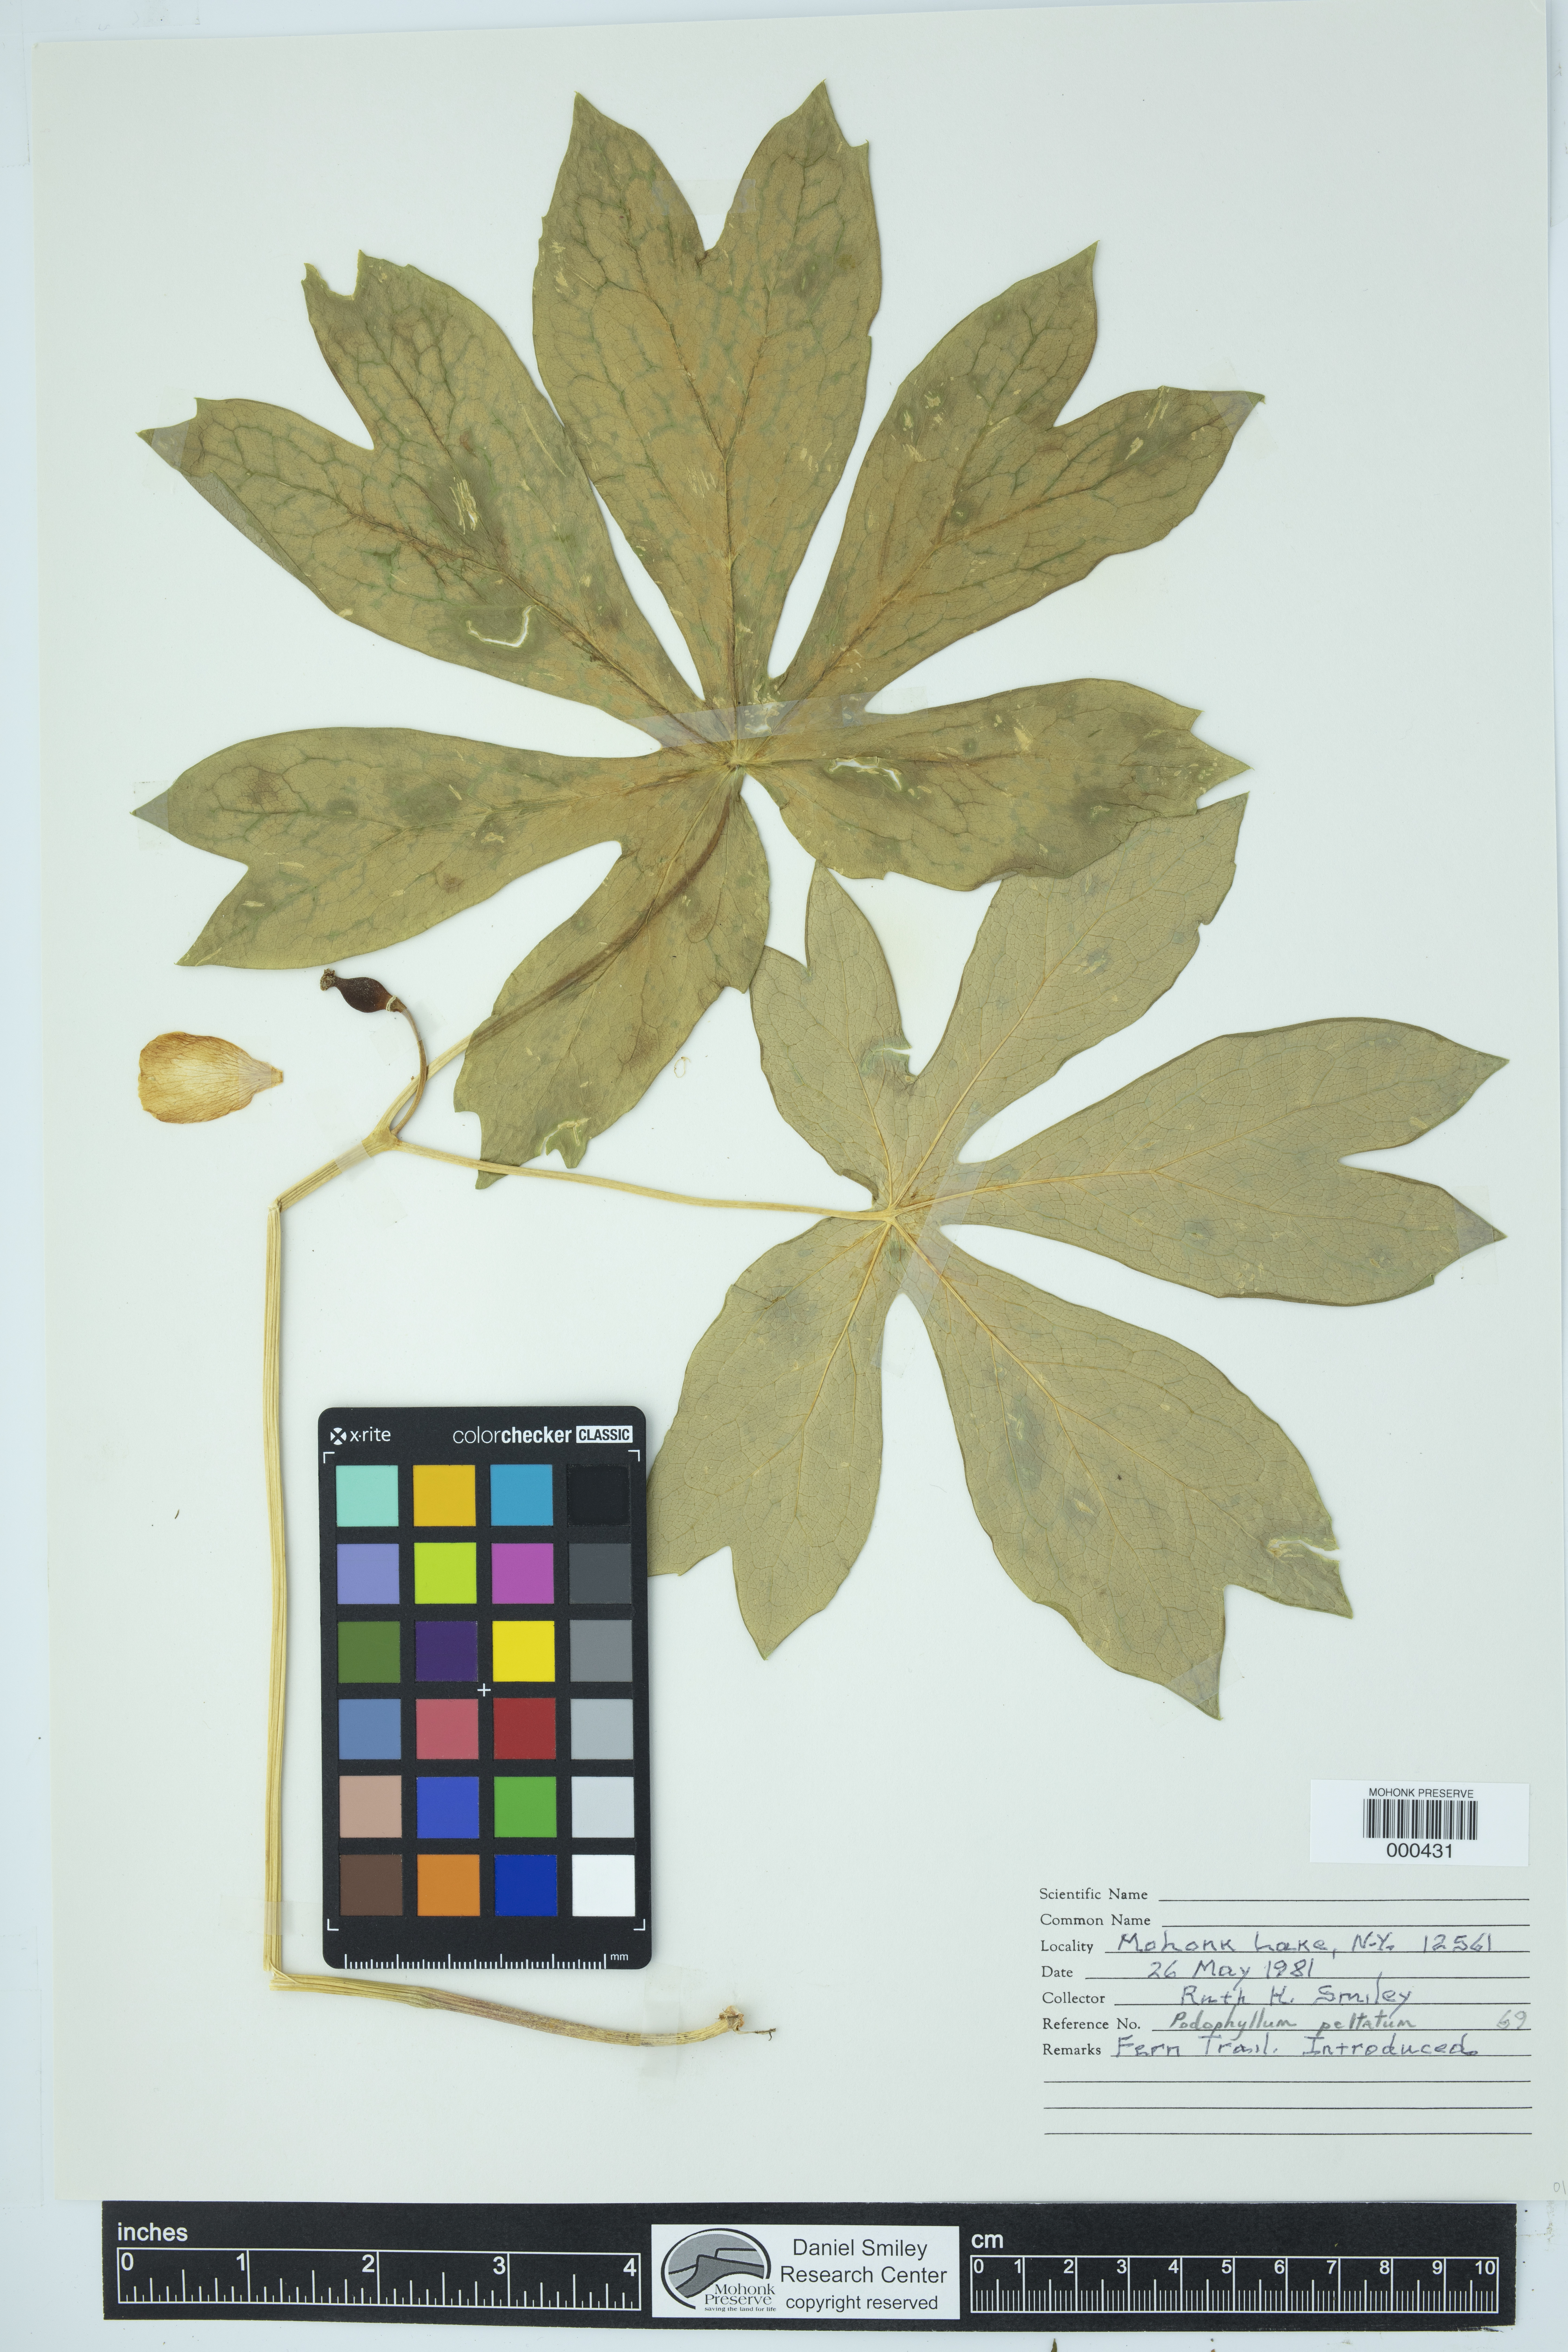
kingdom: Plantae
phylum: Tracheophyta
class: Magnoliopsida
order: Ranunculales
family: Berberidaceae
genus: Podophyllum
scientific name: Podophyllum peltatum
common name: Wild mandrake
